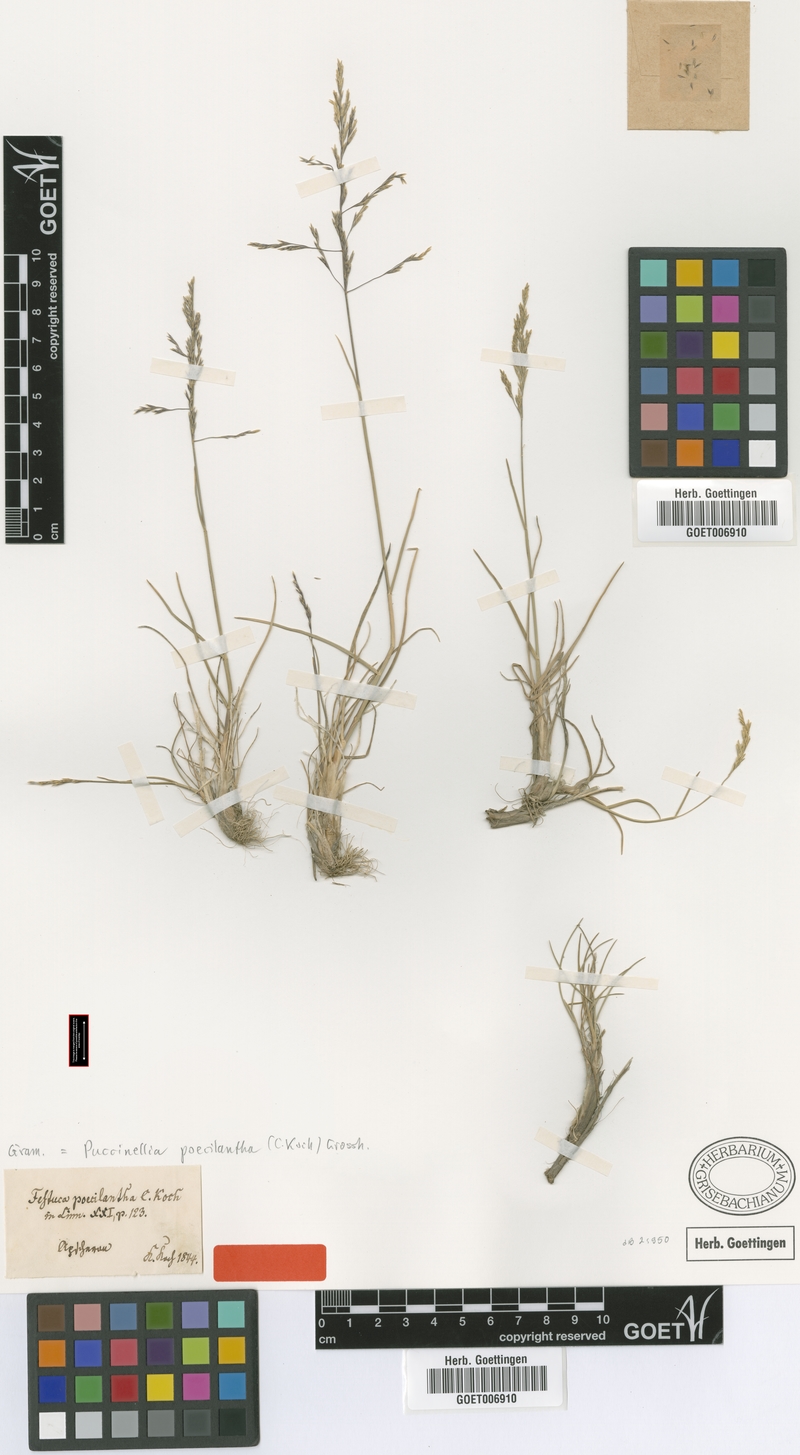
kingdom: Plantae
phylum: Tracheophyta
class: Liliopsida
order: Poales
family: Poaceae
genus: Puccinellia
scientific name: Puccinellia poecilantha
